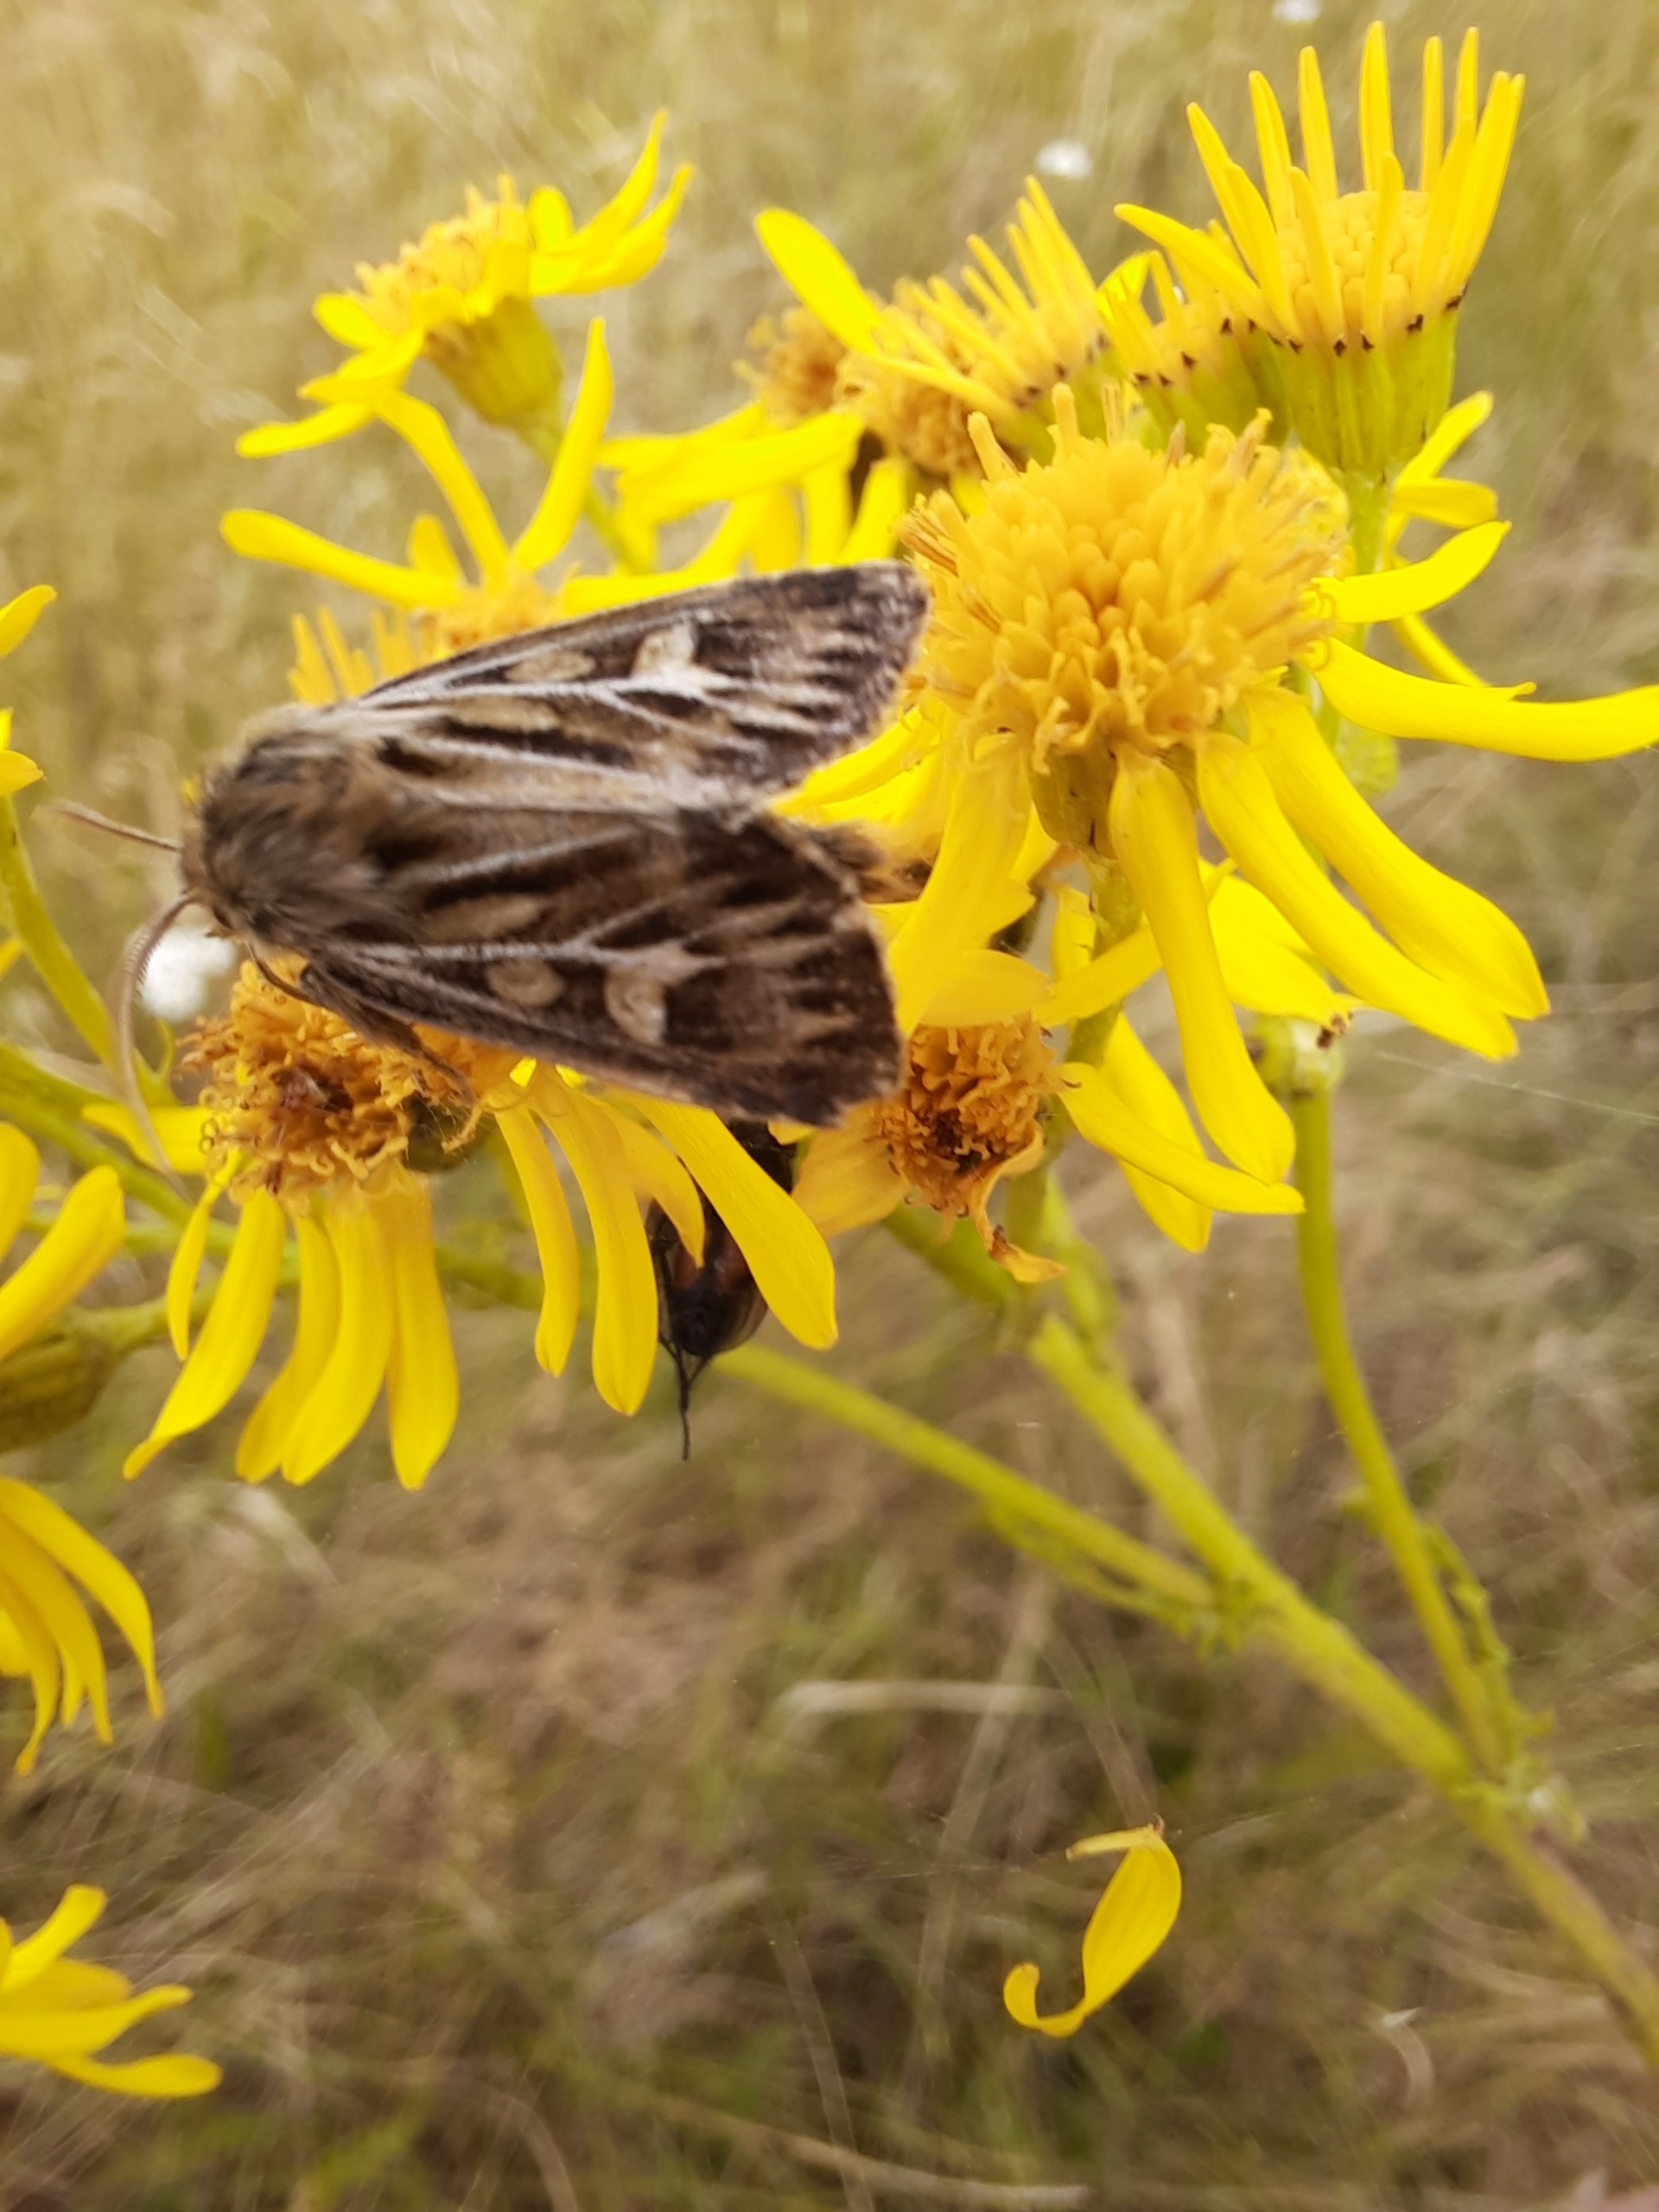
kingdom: Animalia
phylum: Arthropoda
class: Insecta
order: Lepidoptera
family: Noctuidae
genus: Cerapteryx
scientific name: Cerapteryx graminis
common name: Mosebunkeugle
